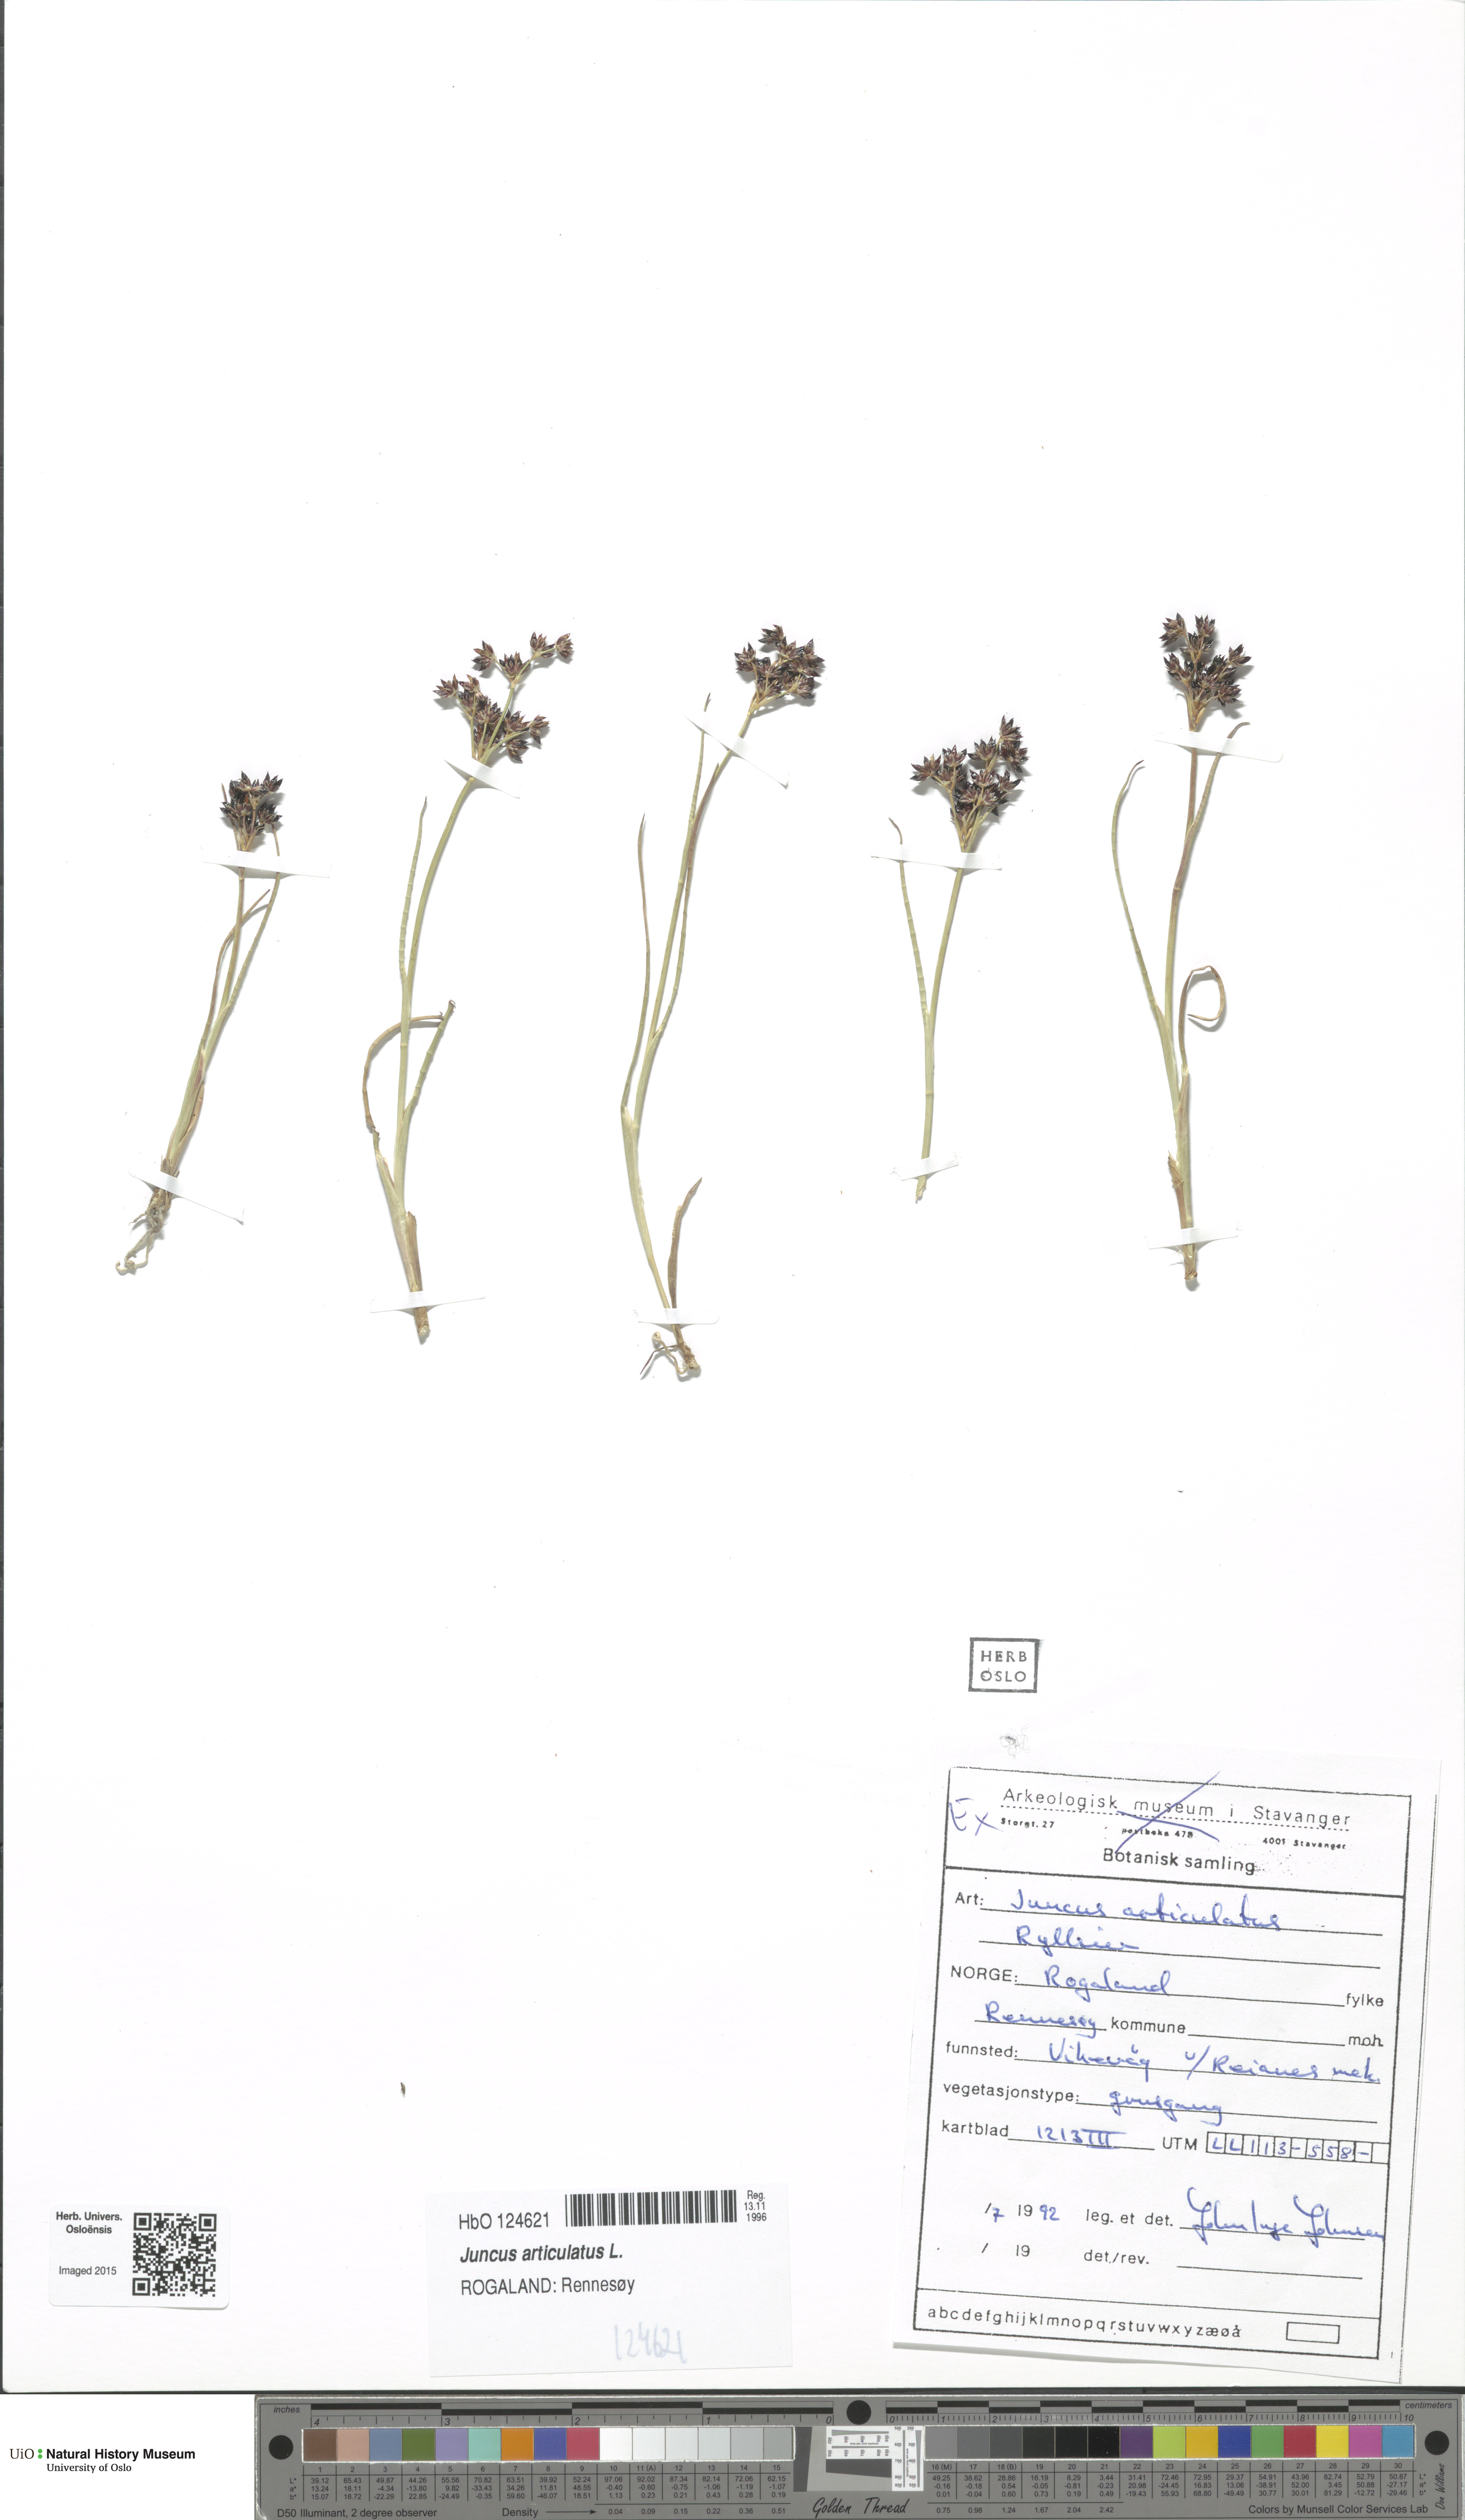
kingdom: Plantae
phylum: Tracheophyta
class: Liliopsida
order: Poales
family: Juncaceae
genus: Juncus
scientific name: Juncus articulatus
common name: Jointed rush
